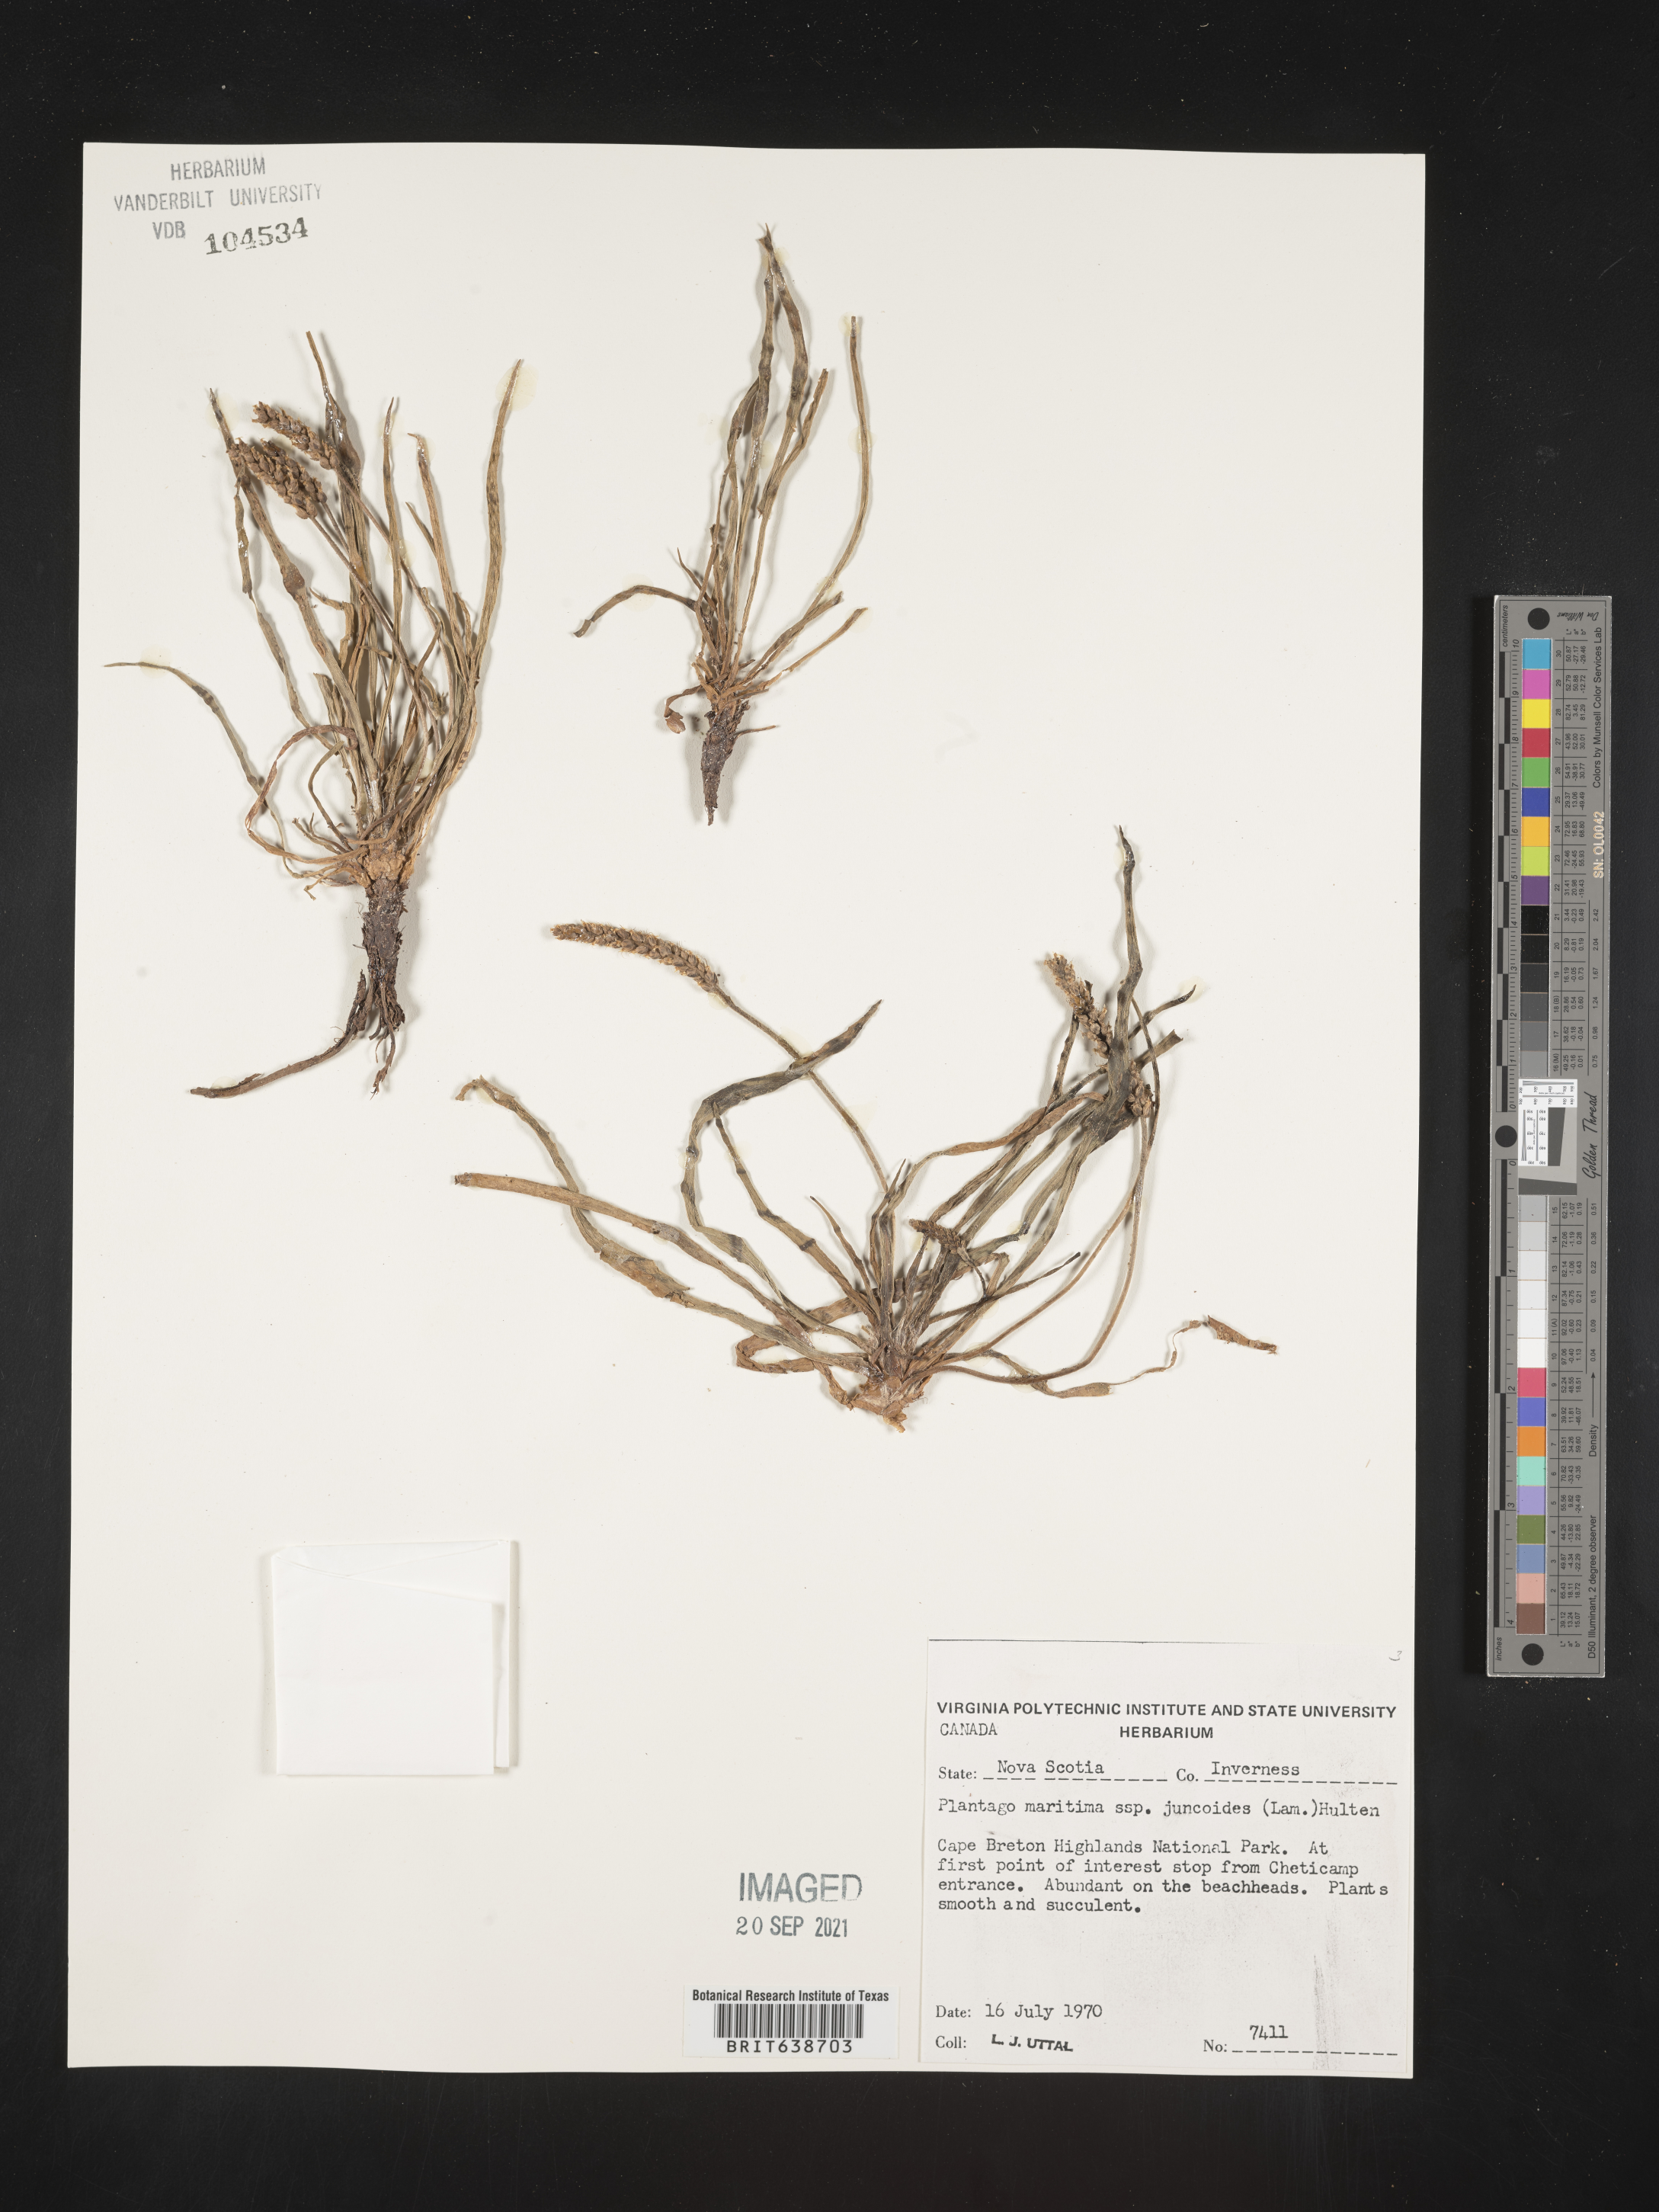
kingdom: Plantae
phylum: Tracheophyta
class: Magnoliopsida
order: Lamiales
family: Plantaginaceae
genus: Plantago
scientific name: Plantago
